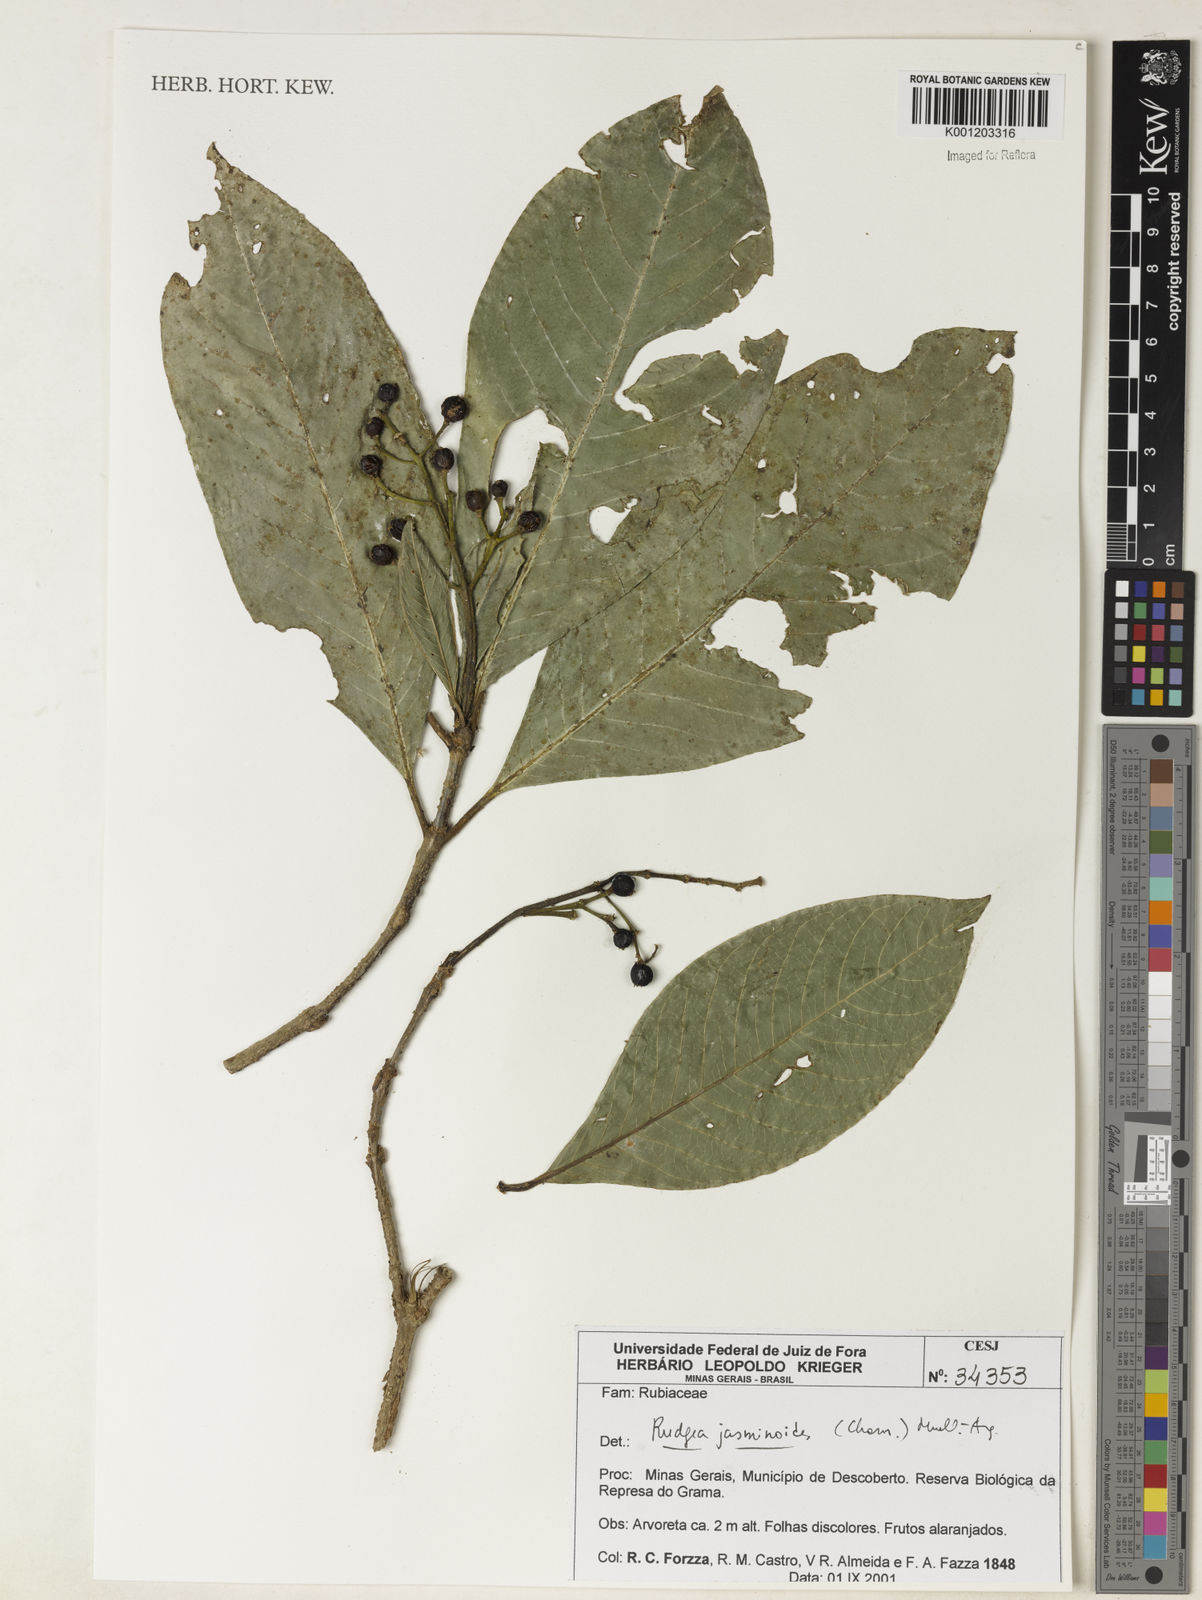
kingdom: Plantae
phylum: Tracheophyta
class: Magnoliopsida
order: Gentianales
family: Rubiaceae
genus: Rudgea
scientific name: Rudgea
